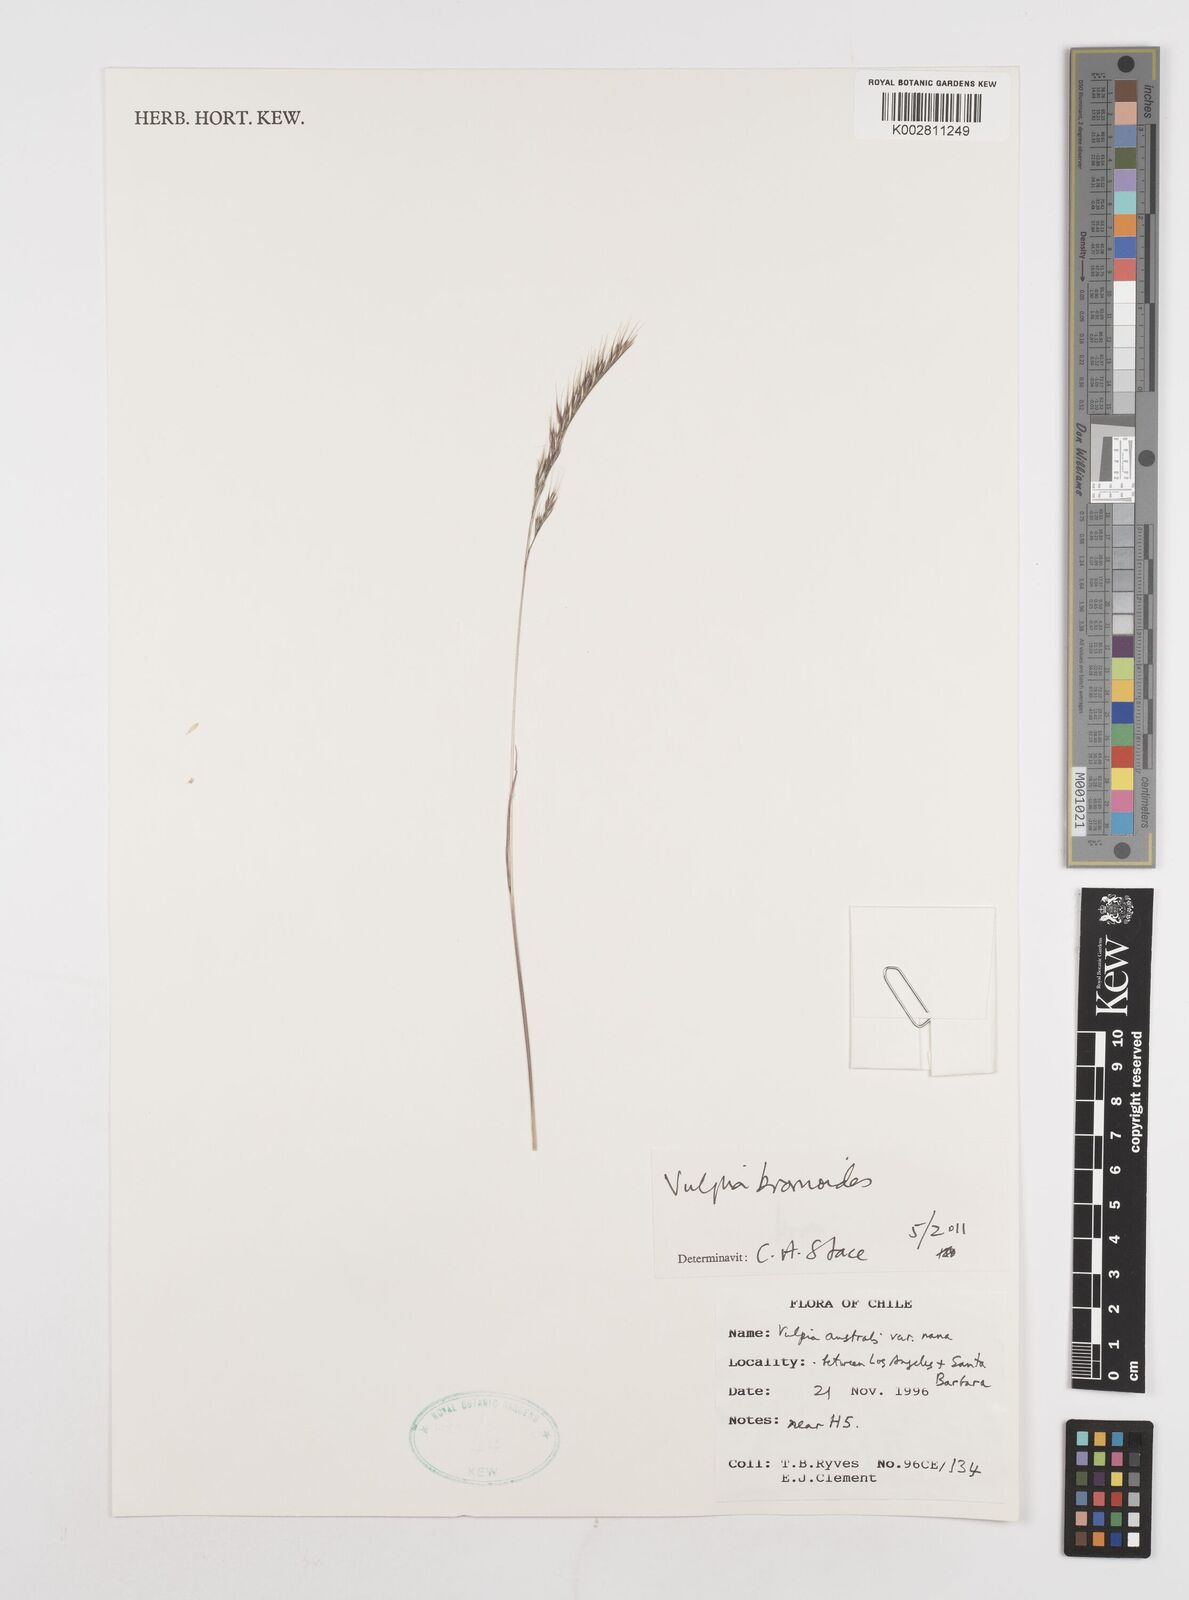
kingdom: Plantae
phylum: Tracheophyta
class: Liliopsida
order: Poales
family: Poaceae
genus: Festuca
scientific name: Festuca bromoides
